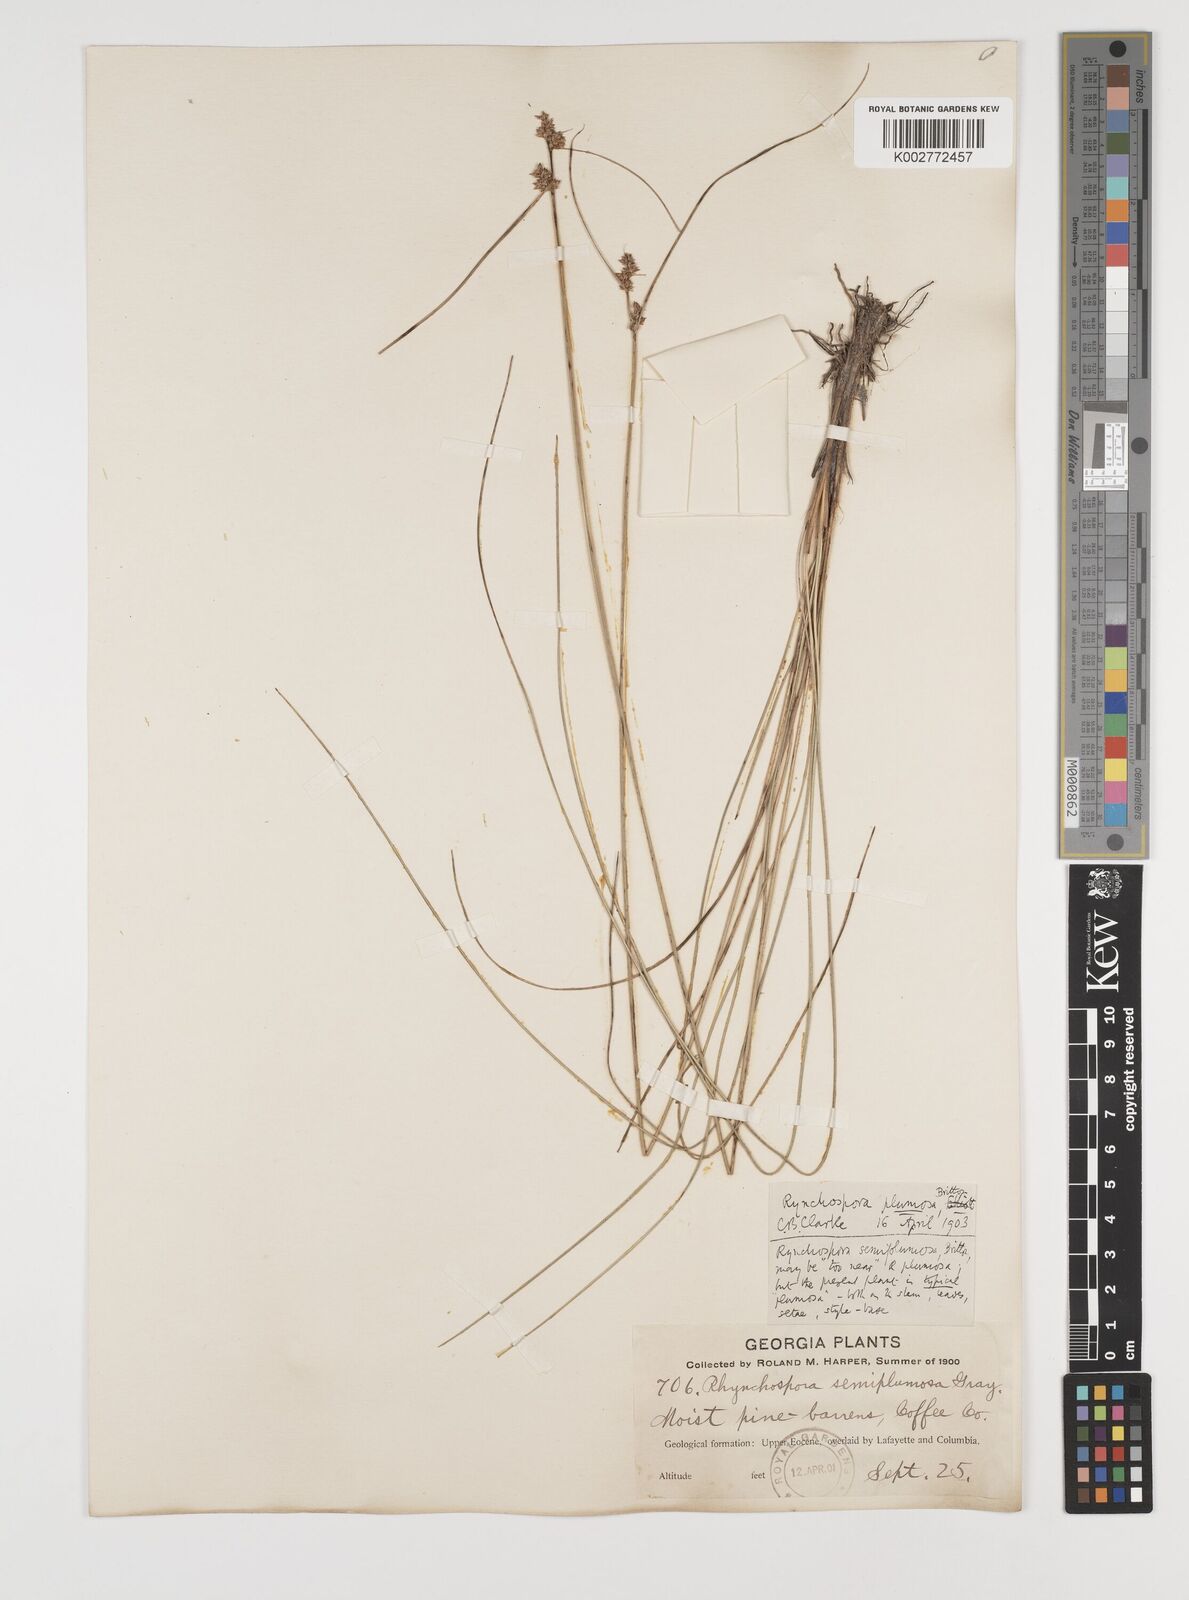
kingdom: Plantae
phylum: Tracheophyta
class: Liliopsida
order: Poales
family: Cyperaceae
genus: Rhynchospora
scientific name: Rhynchospora plumosa
